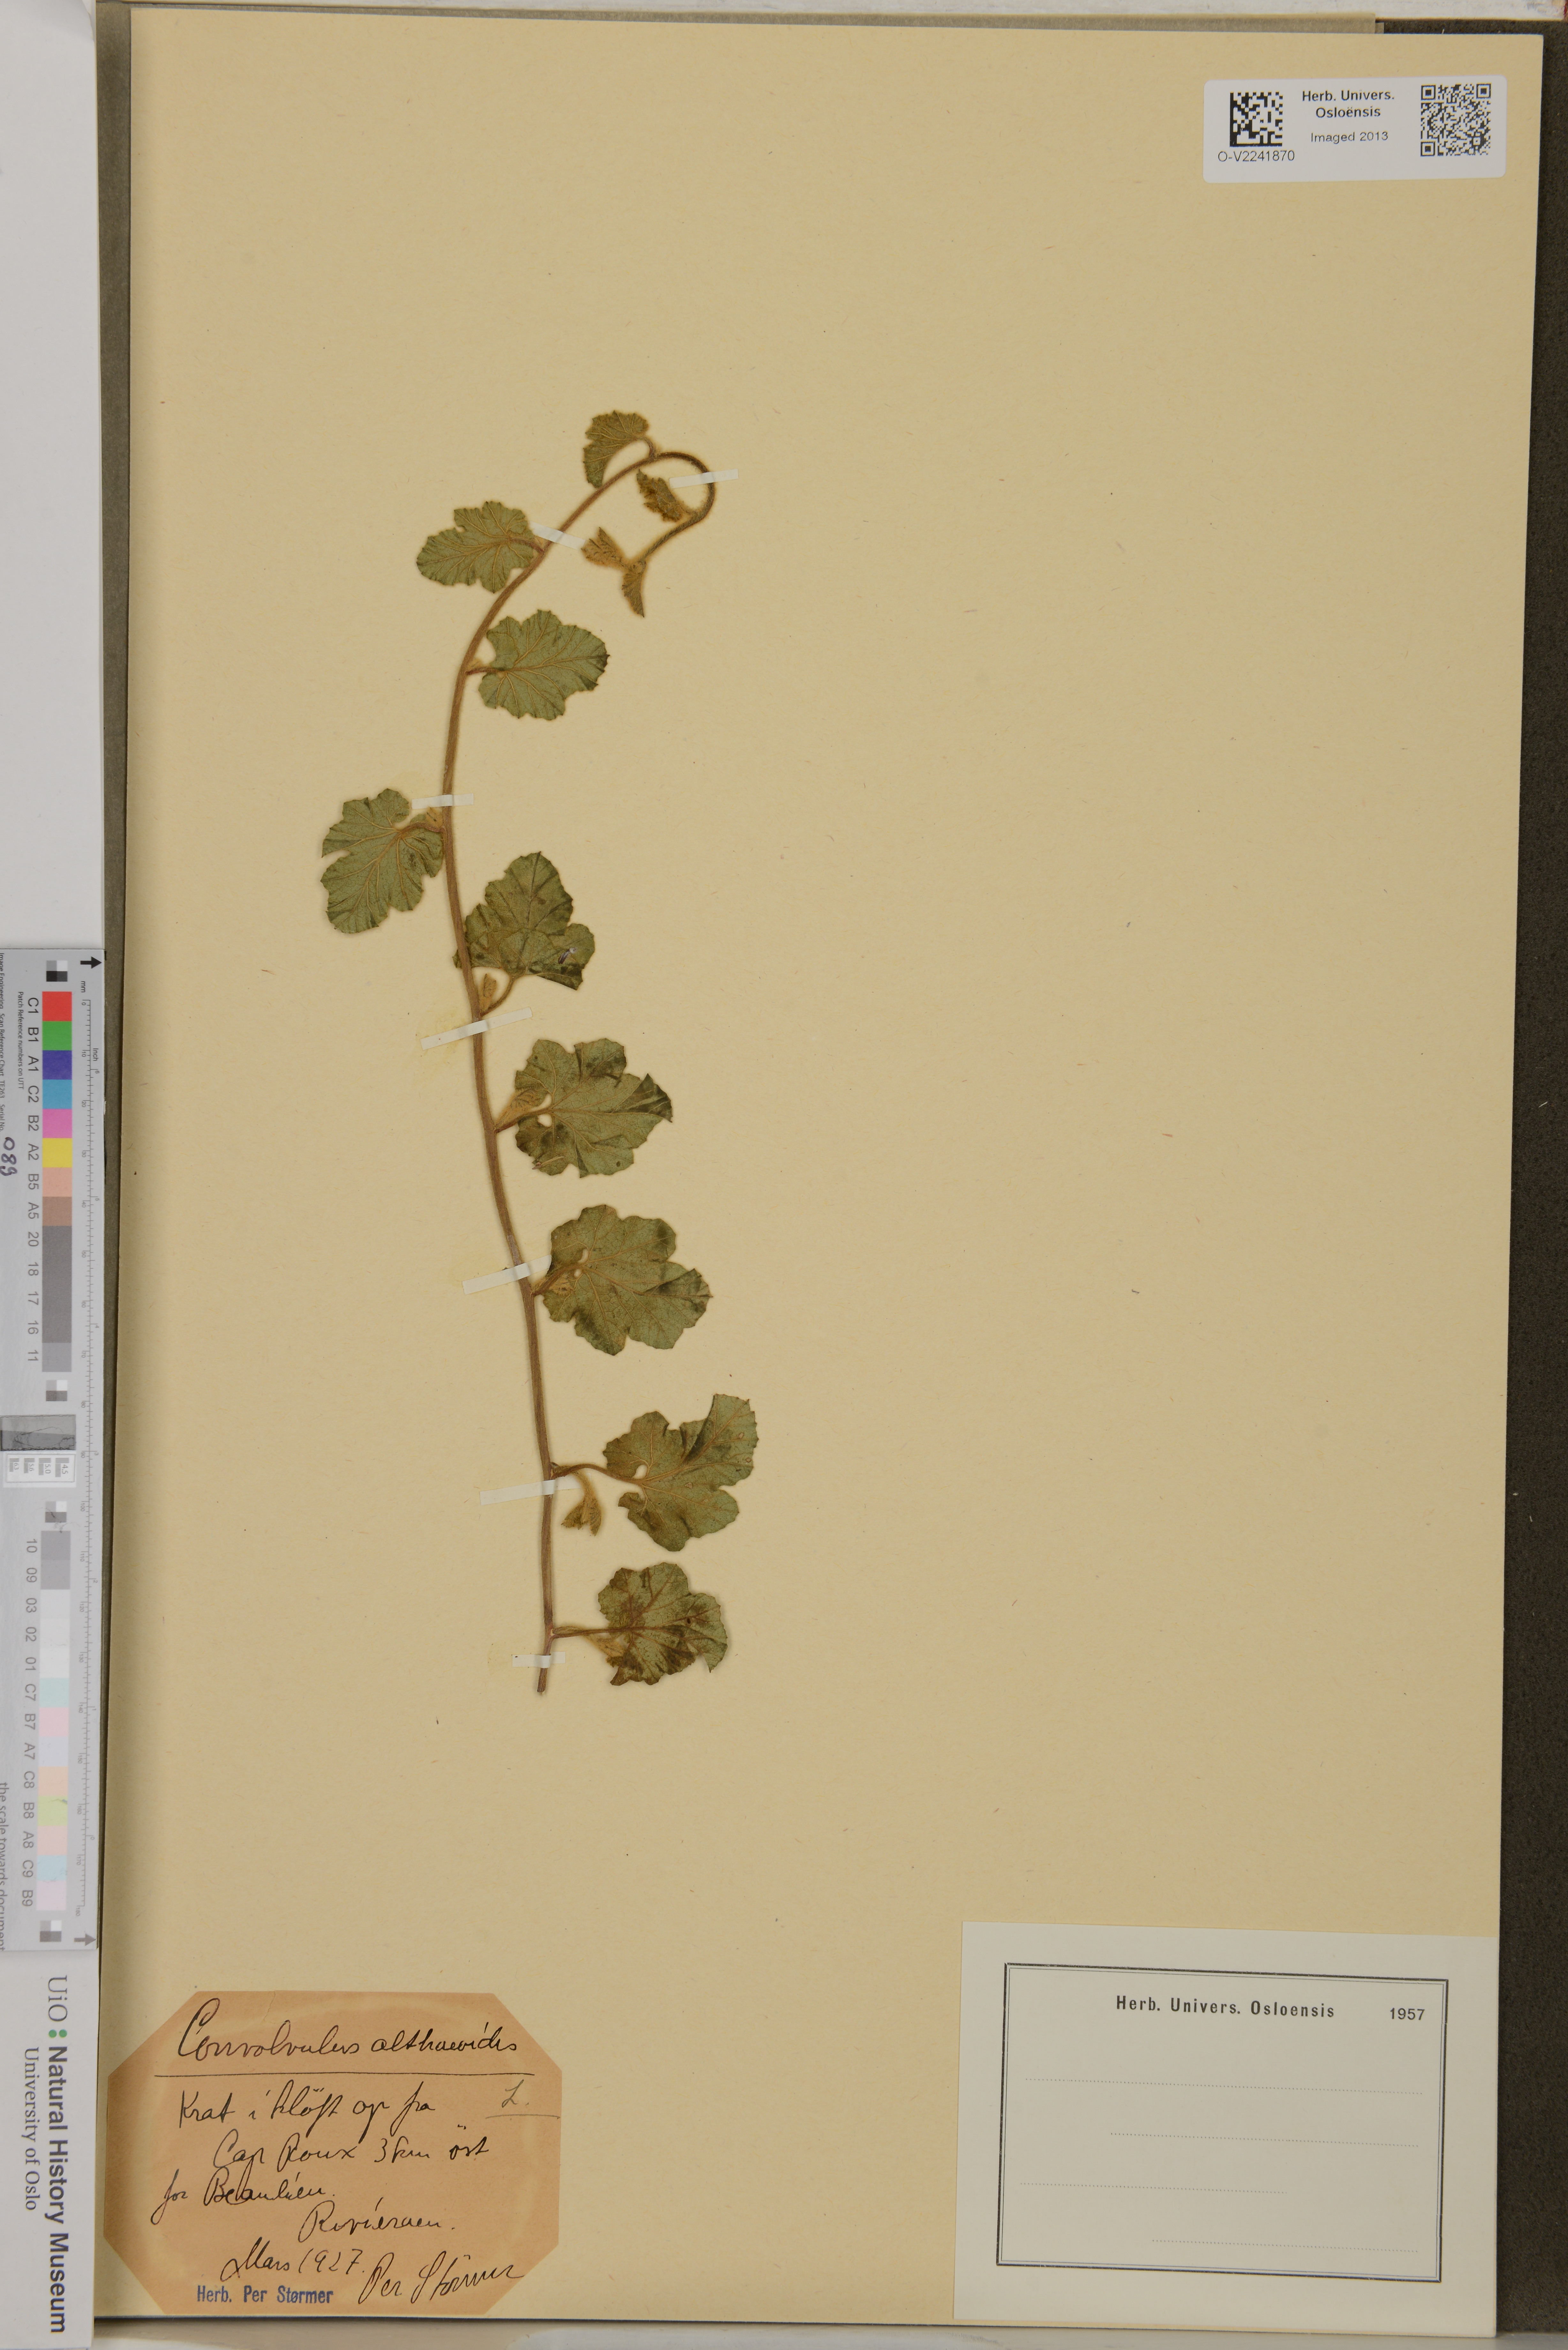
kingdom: Plantae
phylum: Tracheophyta
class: Magnoliopsida
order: Solanales
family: Convolvulaceae
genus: Convolvulus
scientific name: Convolvulus althaeoides
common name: Mallow bindweed
